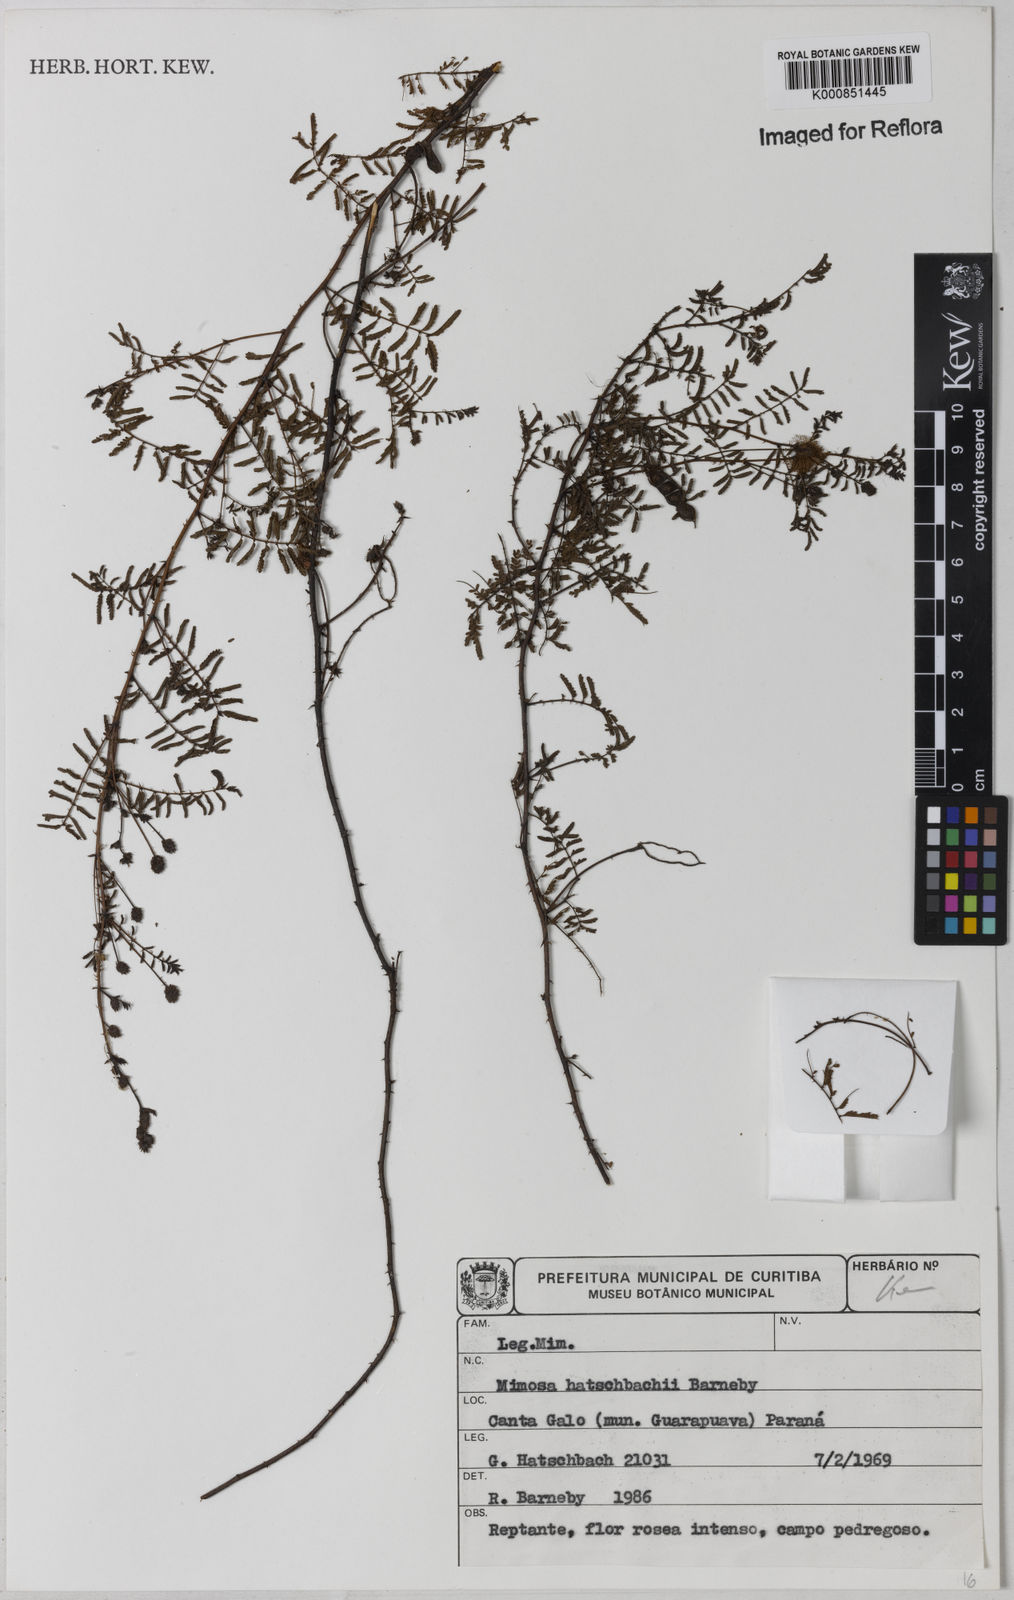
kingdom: Plantae
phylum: Tracheophyta
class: Magnoliopsida
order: Fabales
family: Fabaceae
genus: Mimosa
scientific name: Mimosa hatschbachii
